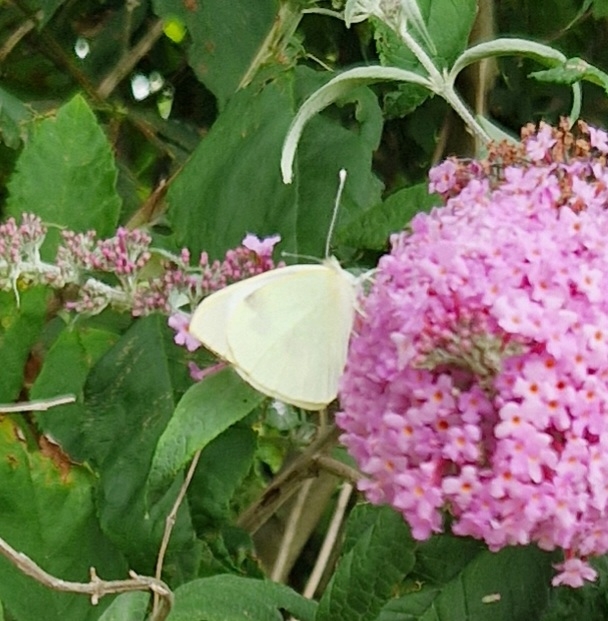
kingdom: Animalia
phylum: Arthropoda
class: Insecta
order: Lepidoptera
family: Pieridae
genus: Pieris
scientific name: Pieris brassicae
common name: Stor kålsommerfugl
